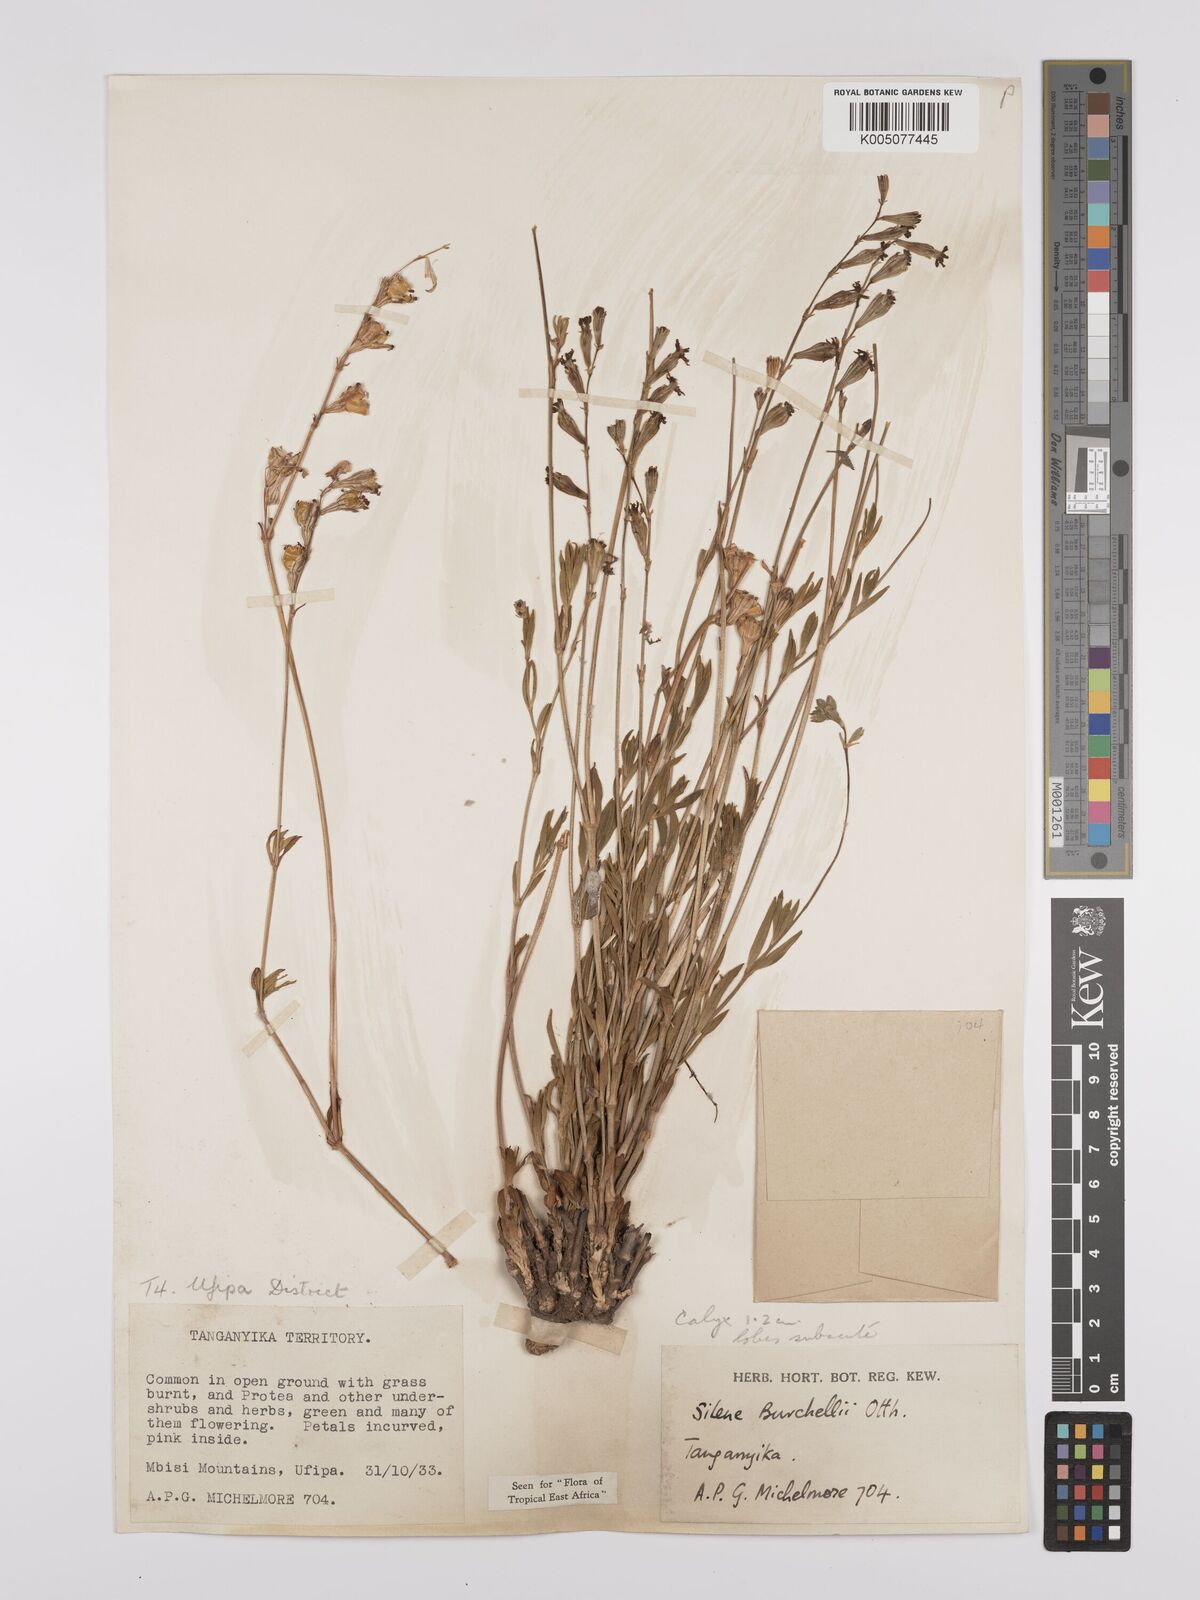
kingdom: Plantae
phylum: Tracheophyta
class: Magnoliopsida
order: Caryophyllales
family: Caryophyllaceae
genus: Silene
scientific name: Silene burchellii
